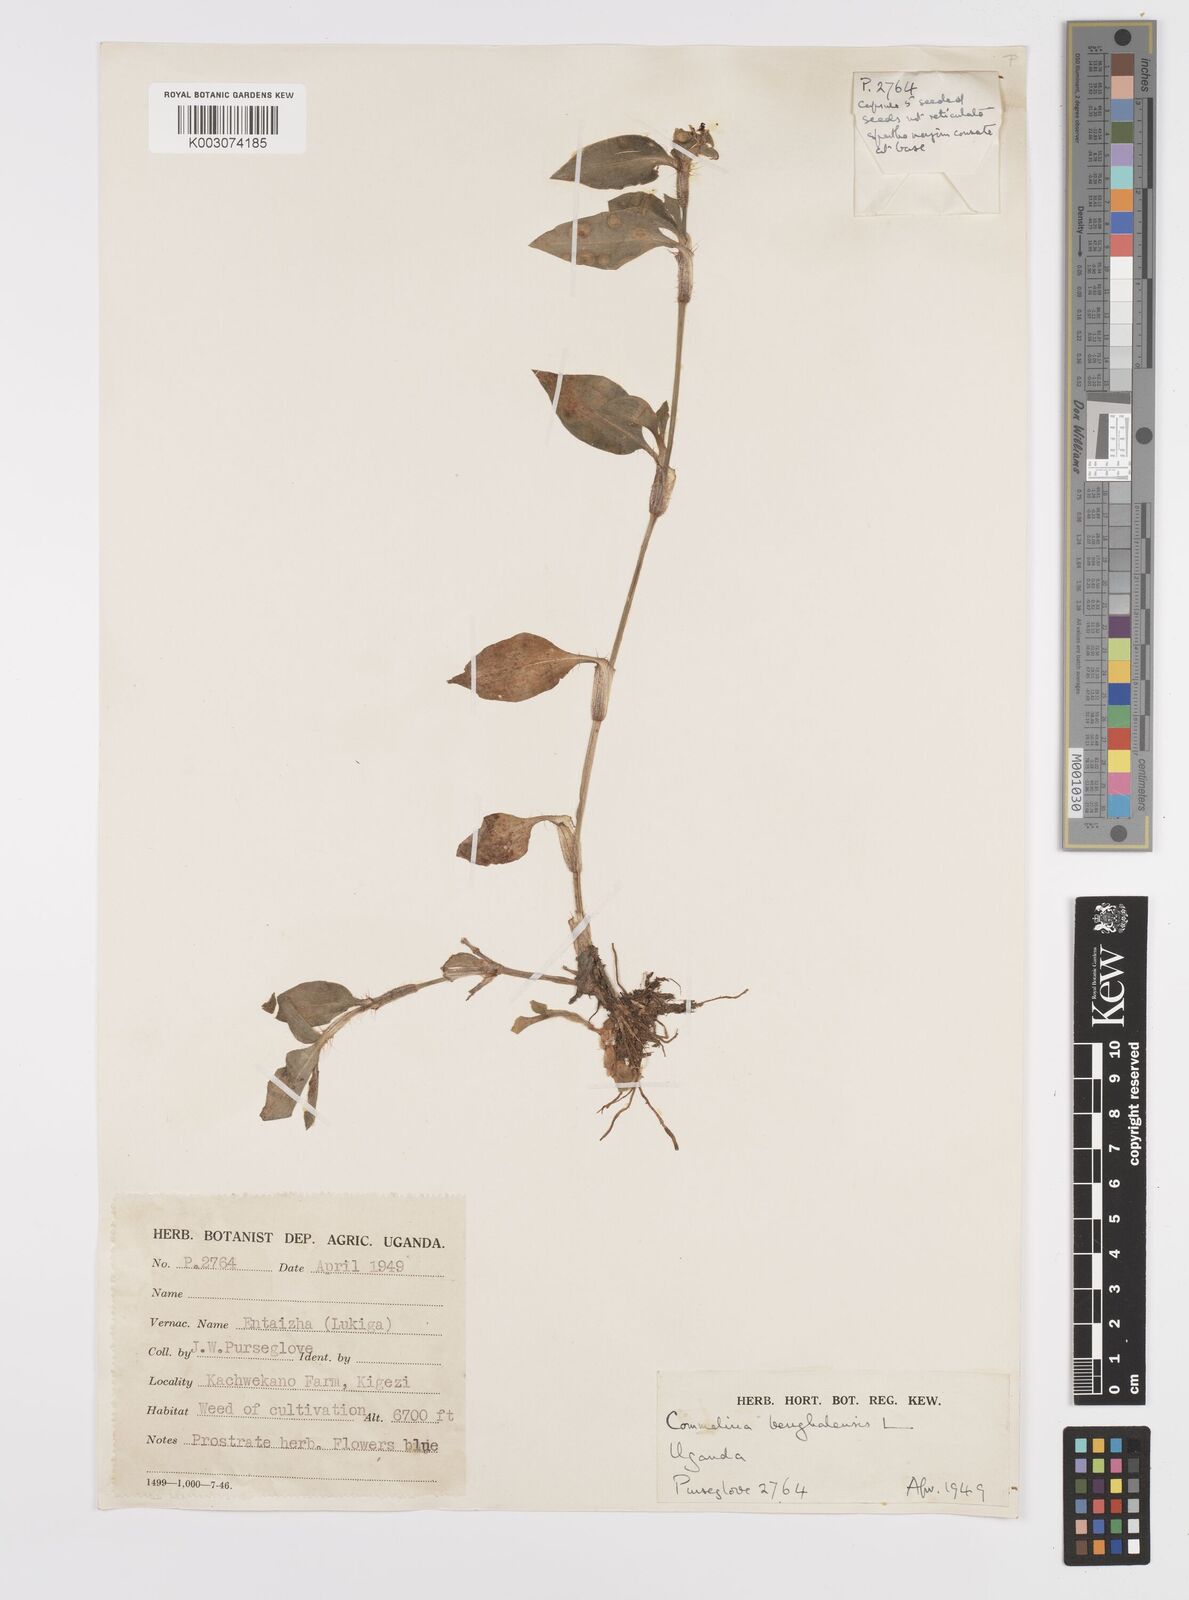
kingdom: Plantae
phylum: Tracheophyta
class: Liliopsida
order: Commelinales
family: Commelinaceae
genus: Commelina
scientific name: Commelina benghalensis
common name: Jio
